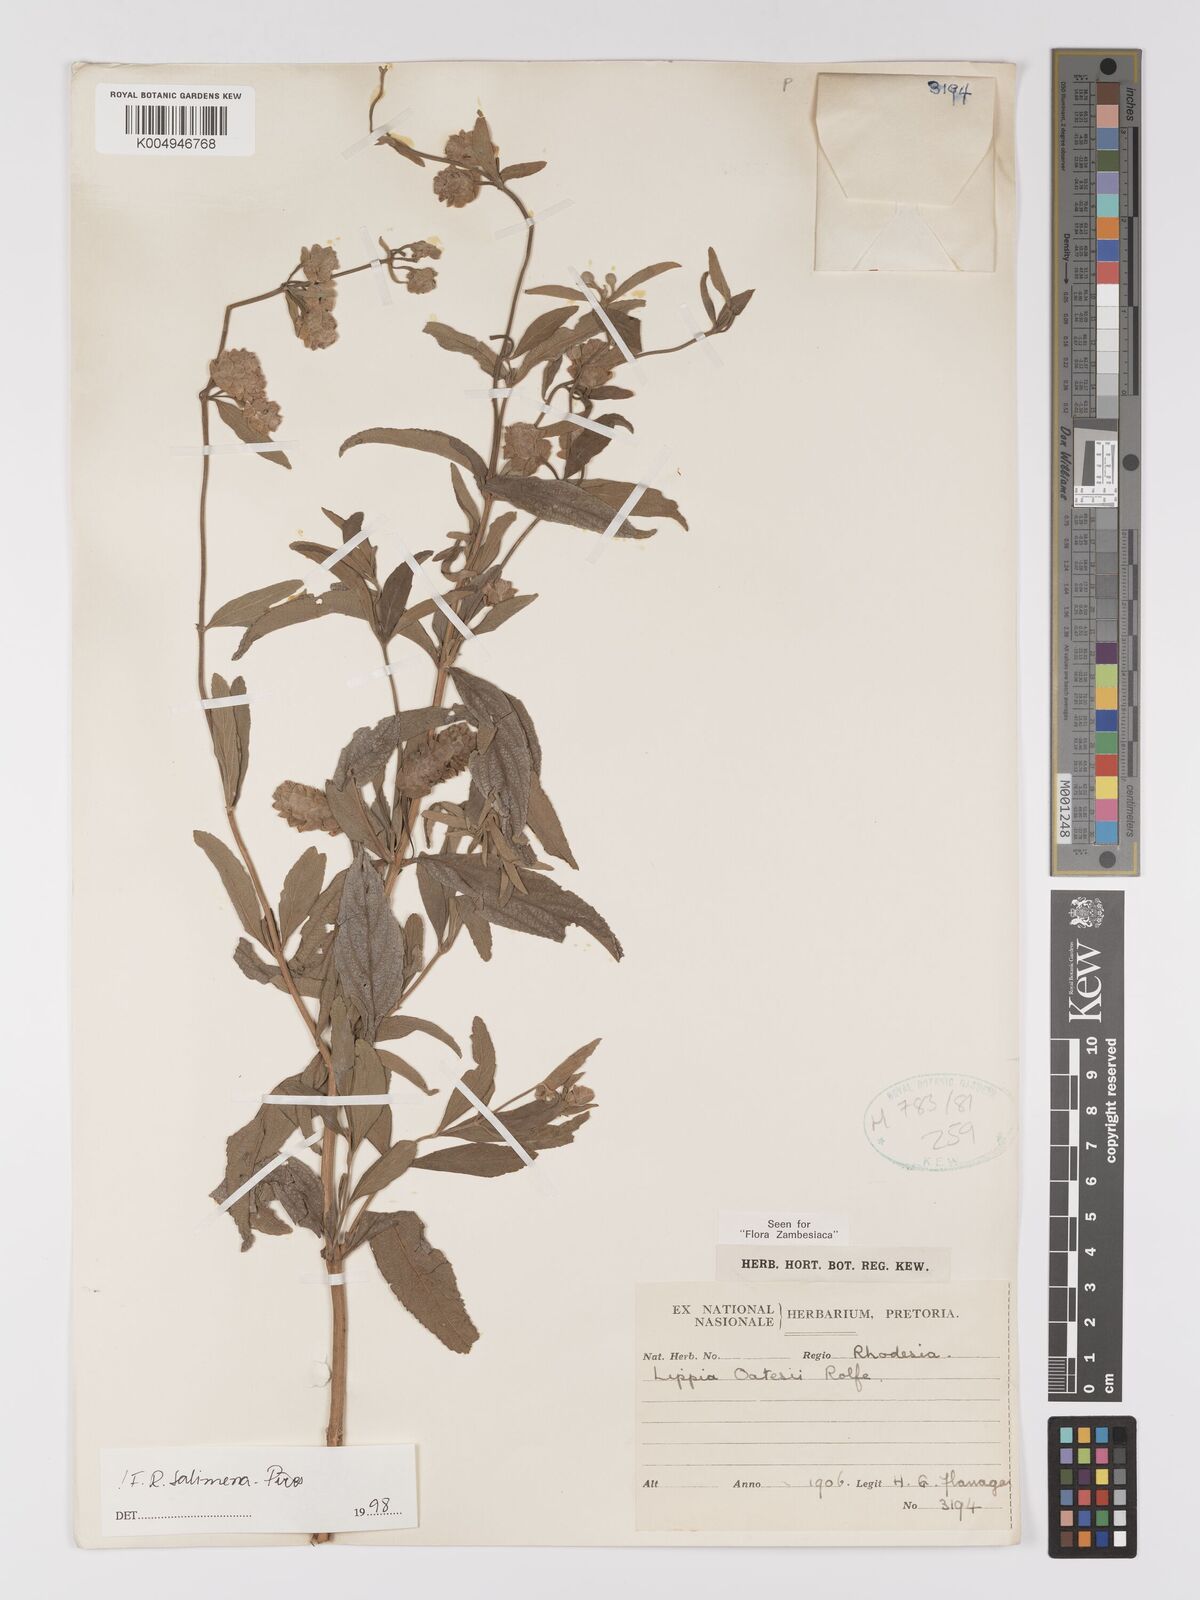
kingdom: Plantae
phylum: Tracheophyta
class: Magnoliopsida
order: Lamiales
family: Verbenaceae
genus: Lippia
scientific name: Lippia oatesii
